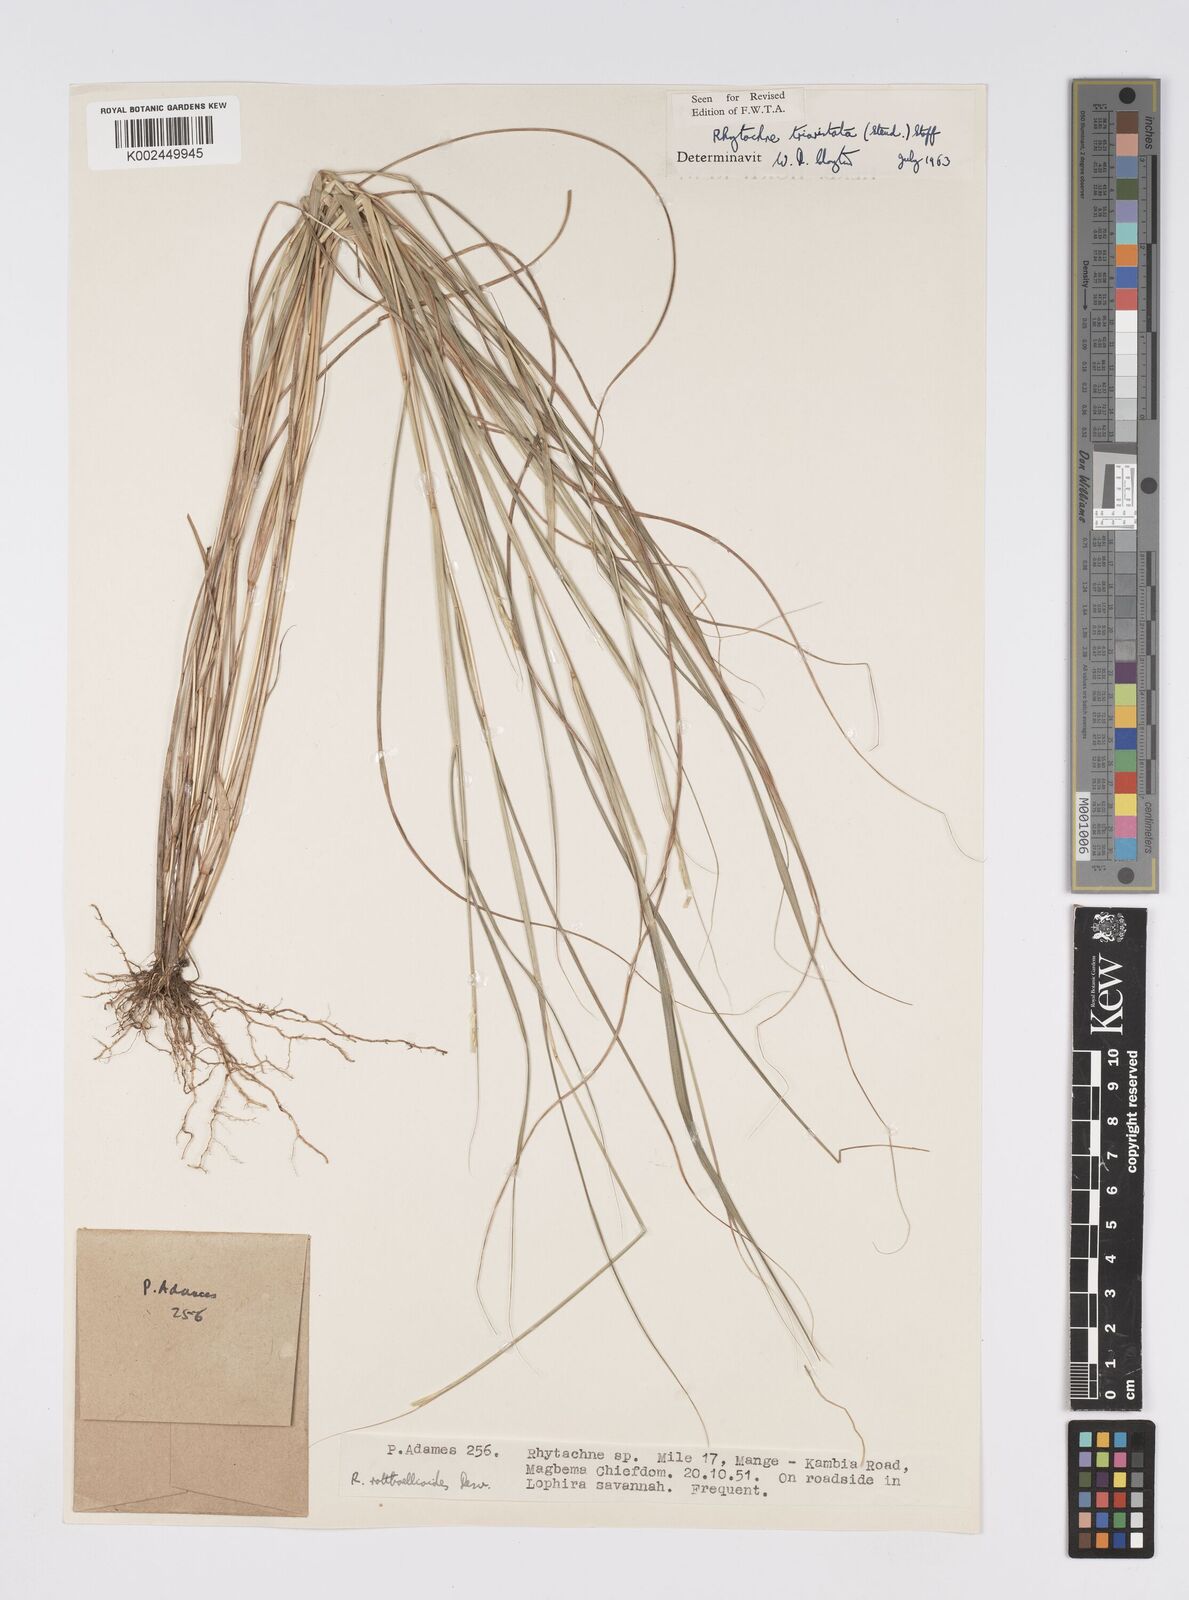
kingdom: Plantae
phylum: Tracheophyta
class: Liliopsida
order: Poales
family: Poaceae
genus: Rhytachne
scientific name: Rhytachne triaristata
